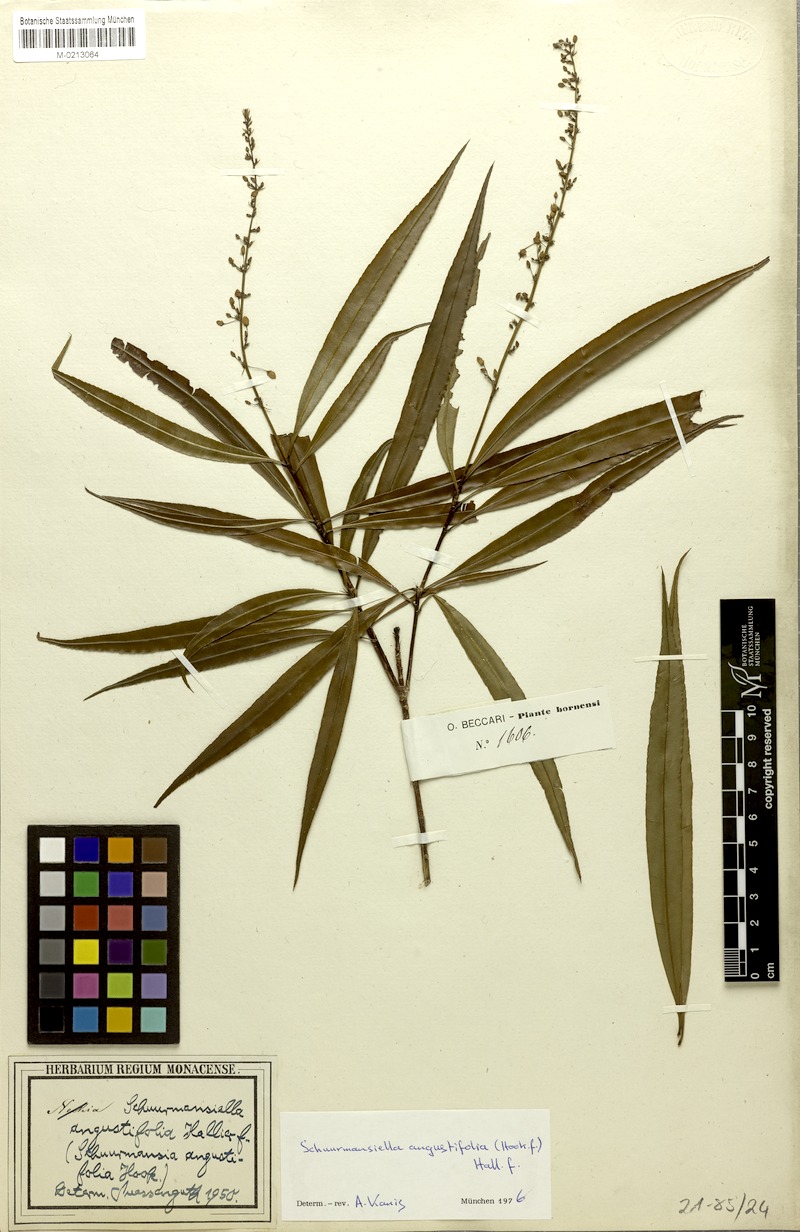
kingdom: Plantae
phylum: Tracheophyta
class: Magnoliopsida
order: Malpighiales
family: Ochnaceae
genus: Schuurmansiella
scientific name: Schuurmansiella angustifolia
